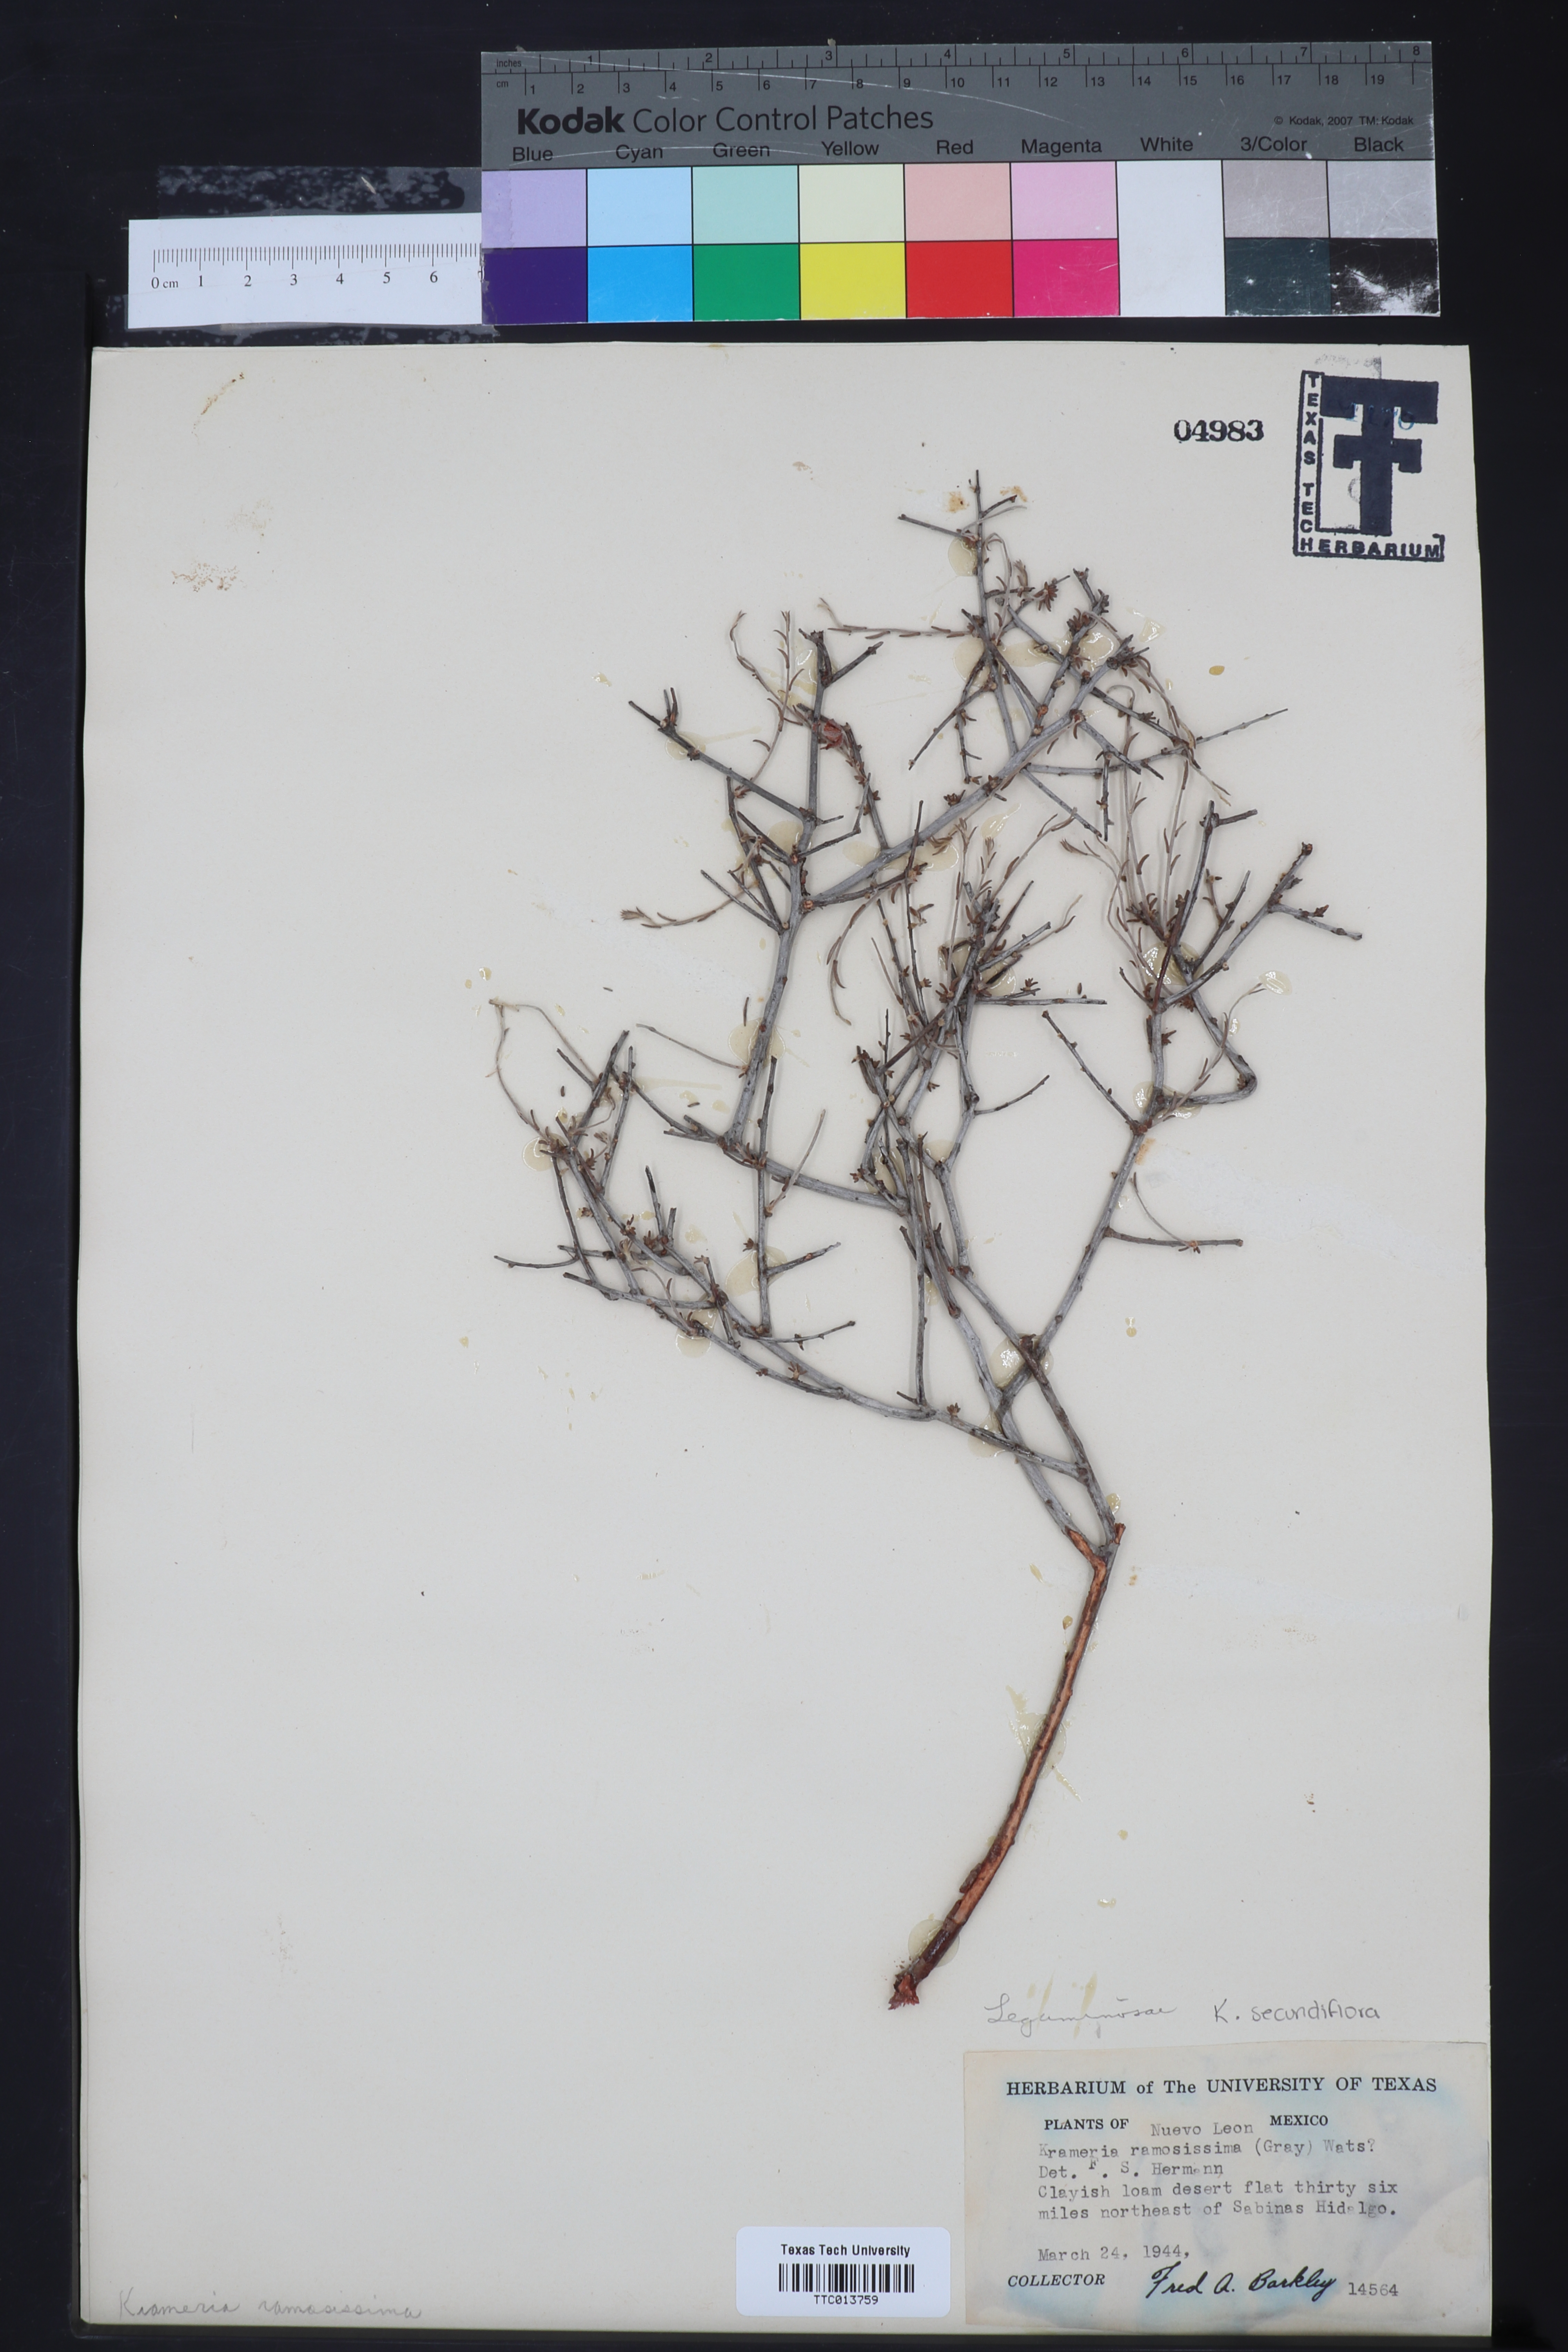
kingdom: Plantae
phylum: Tracheophyta
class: Magnoliopsida
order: Zygophyllales
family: Krameriaceae
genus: Krameria
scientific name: Krameria ramosissima
